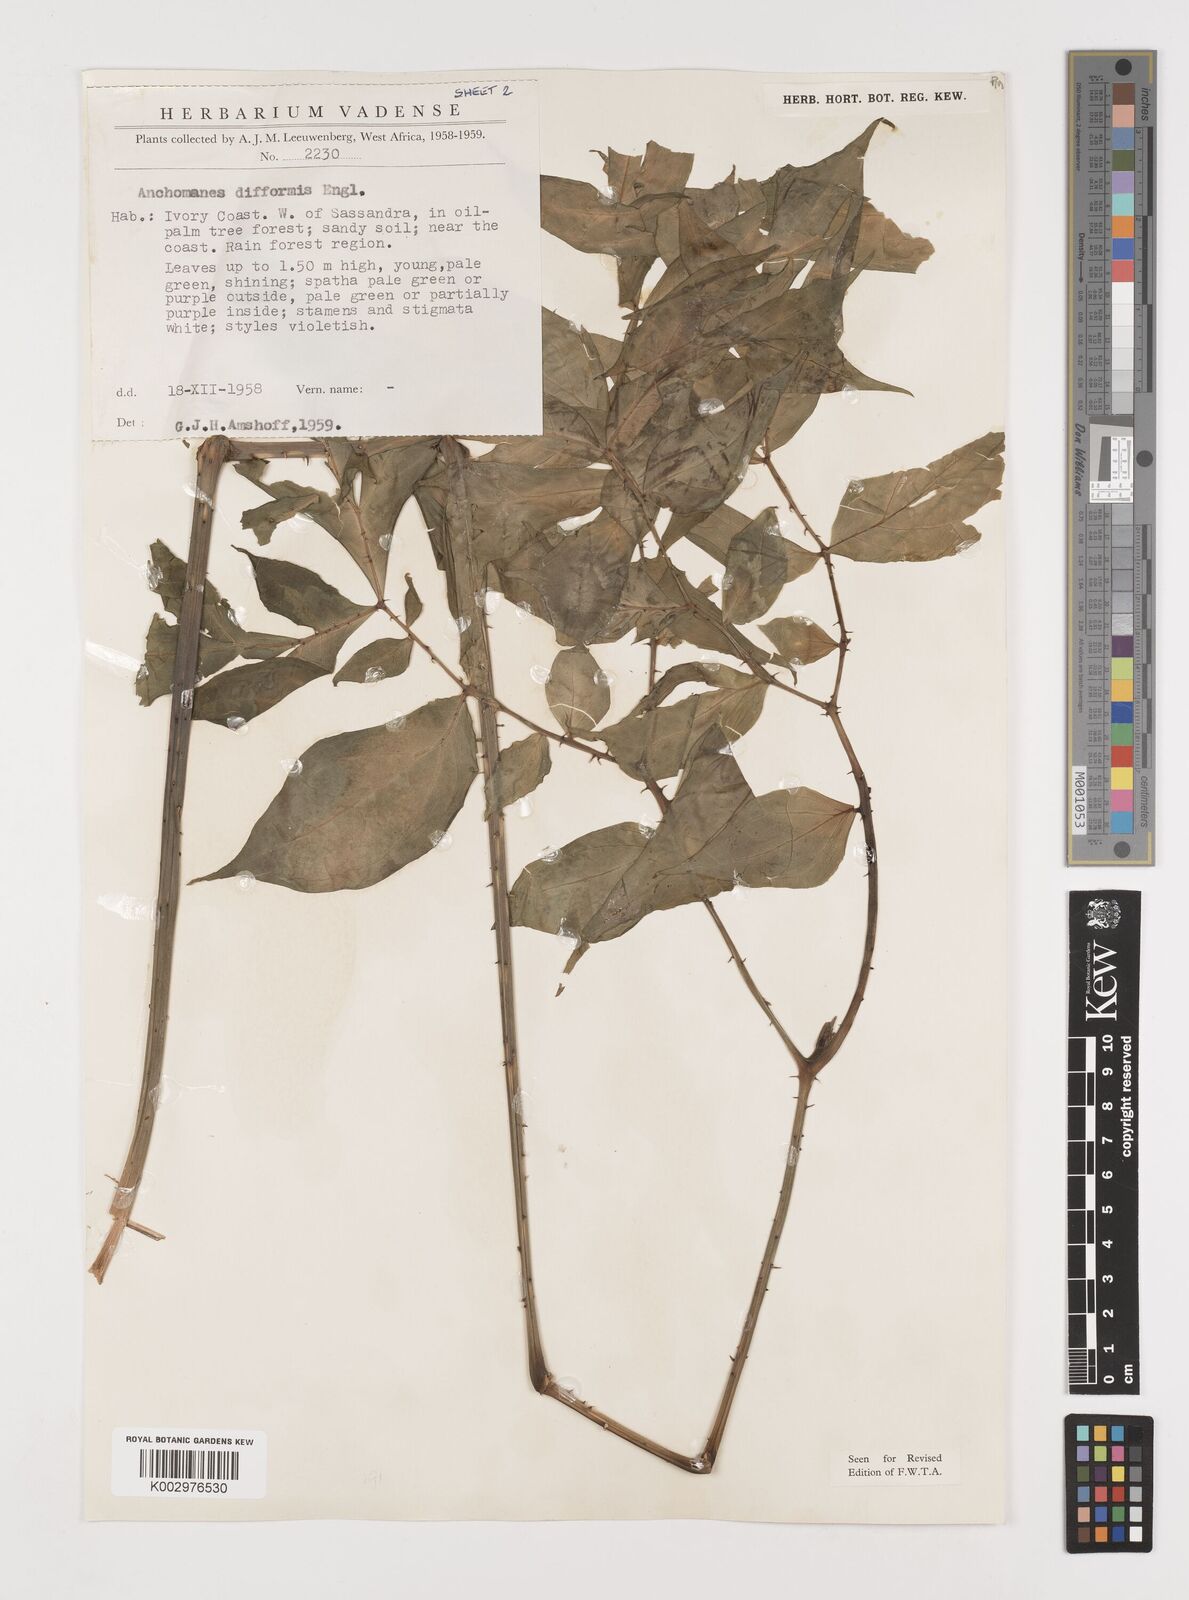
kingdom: Plantae
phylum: Tracheophyta
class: Liliopsida
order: Alismatales
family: Araceae
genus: Anchomanes
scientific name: Anchomanes difformis
